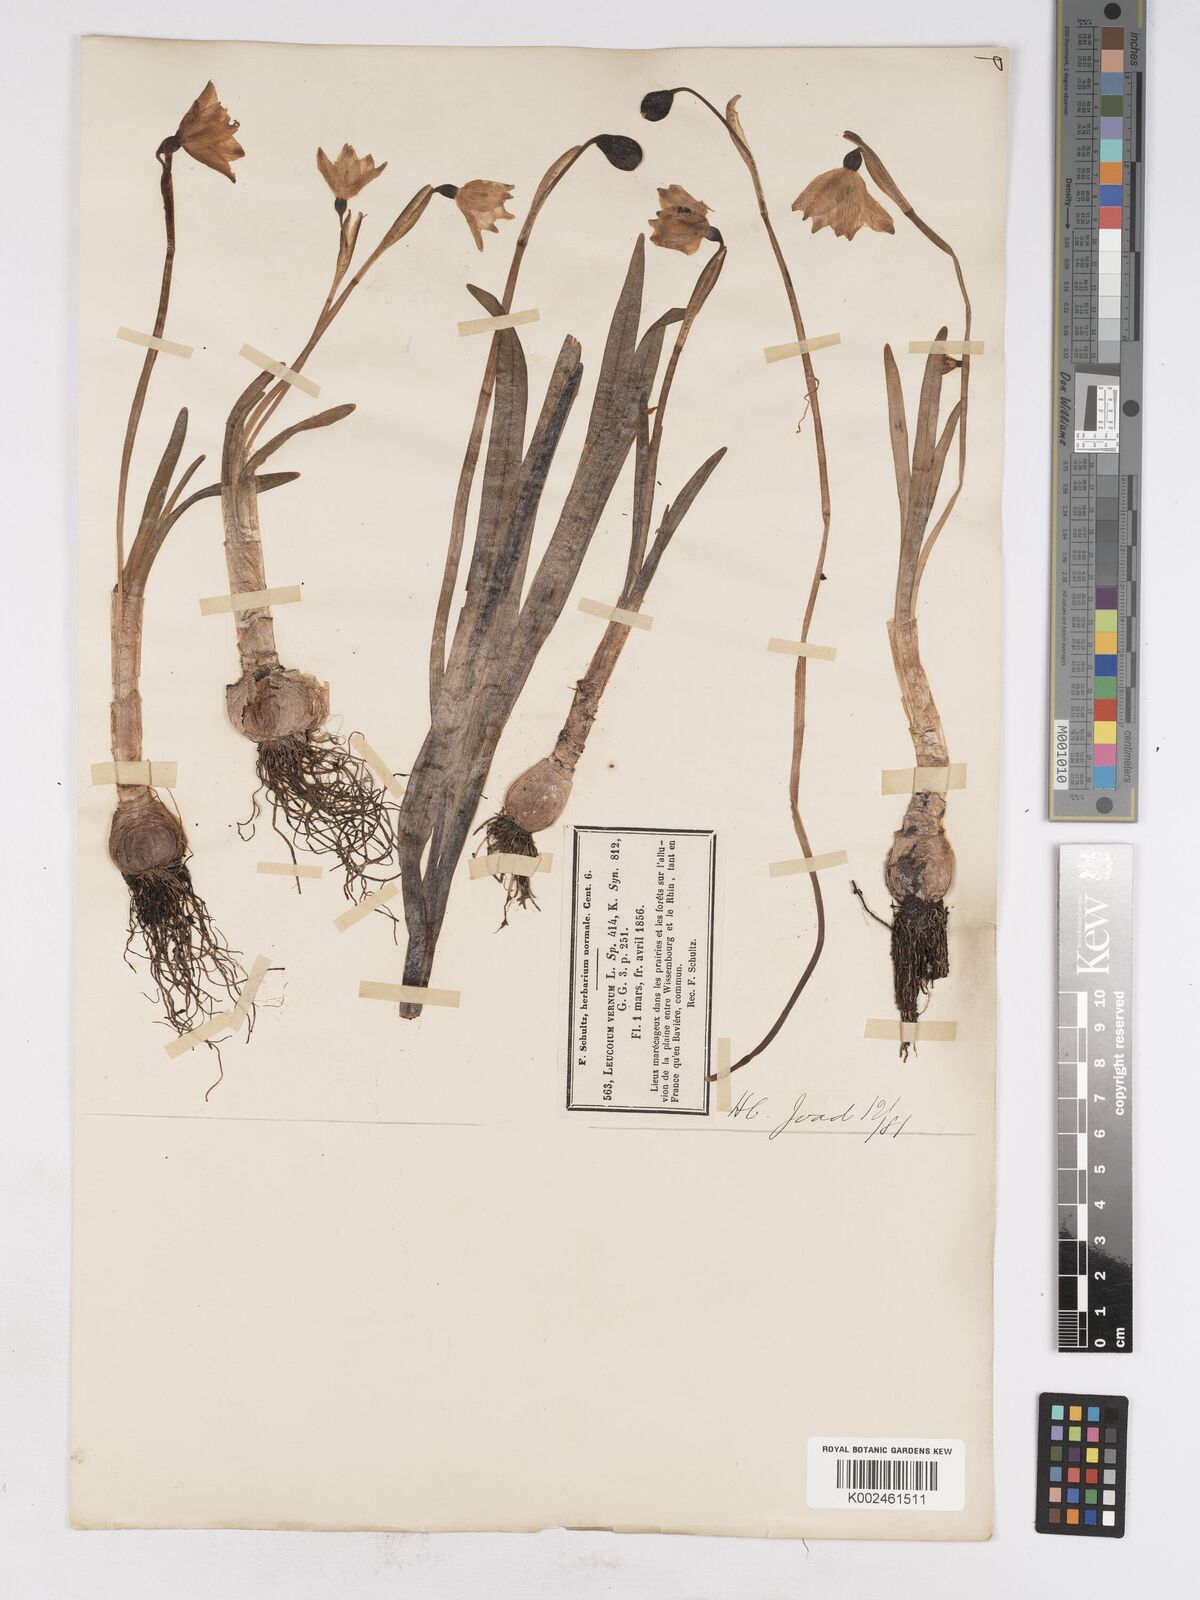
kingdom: Plantae
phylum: Tracheophyta
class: Liliopsida
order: Asparagales
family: Amaryllidaceae
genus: Leucojum
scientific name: Leucojum vernum
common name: Spring snowflake
